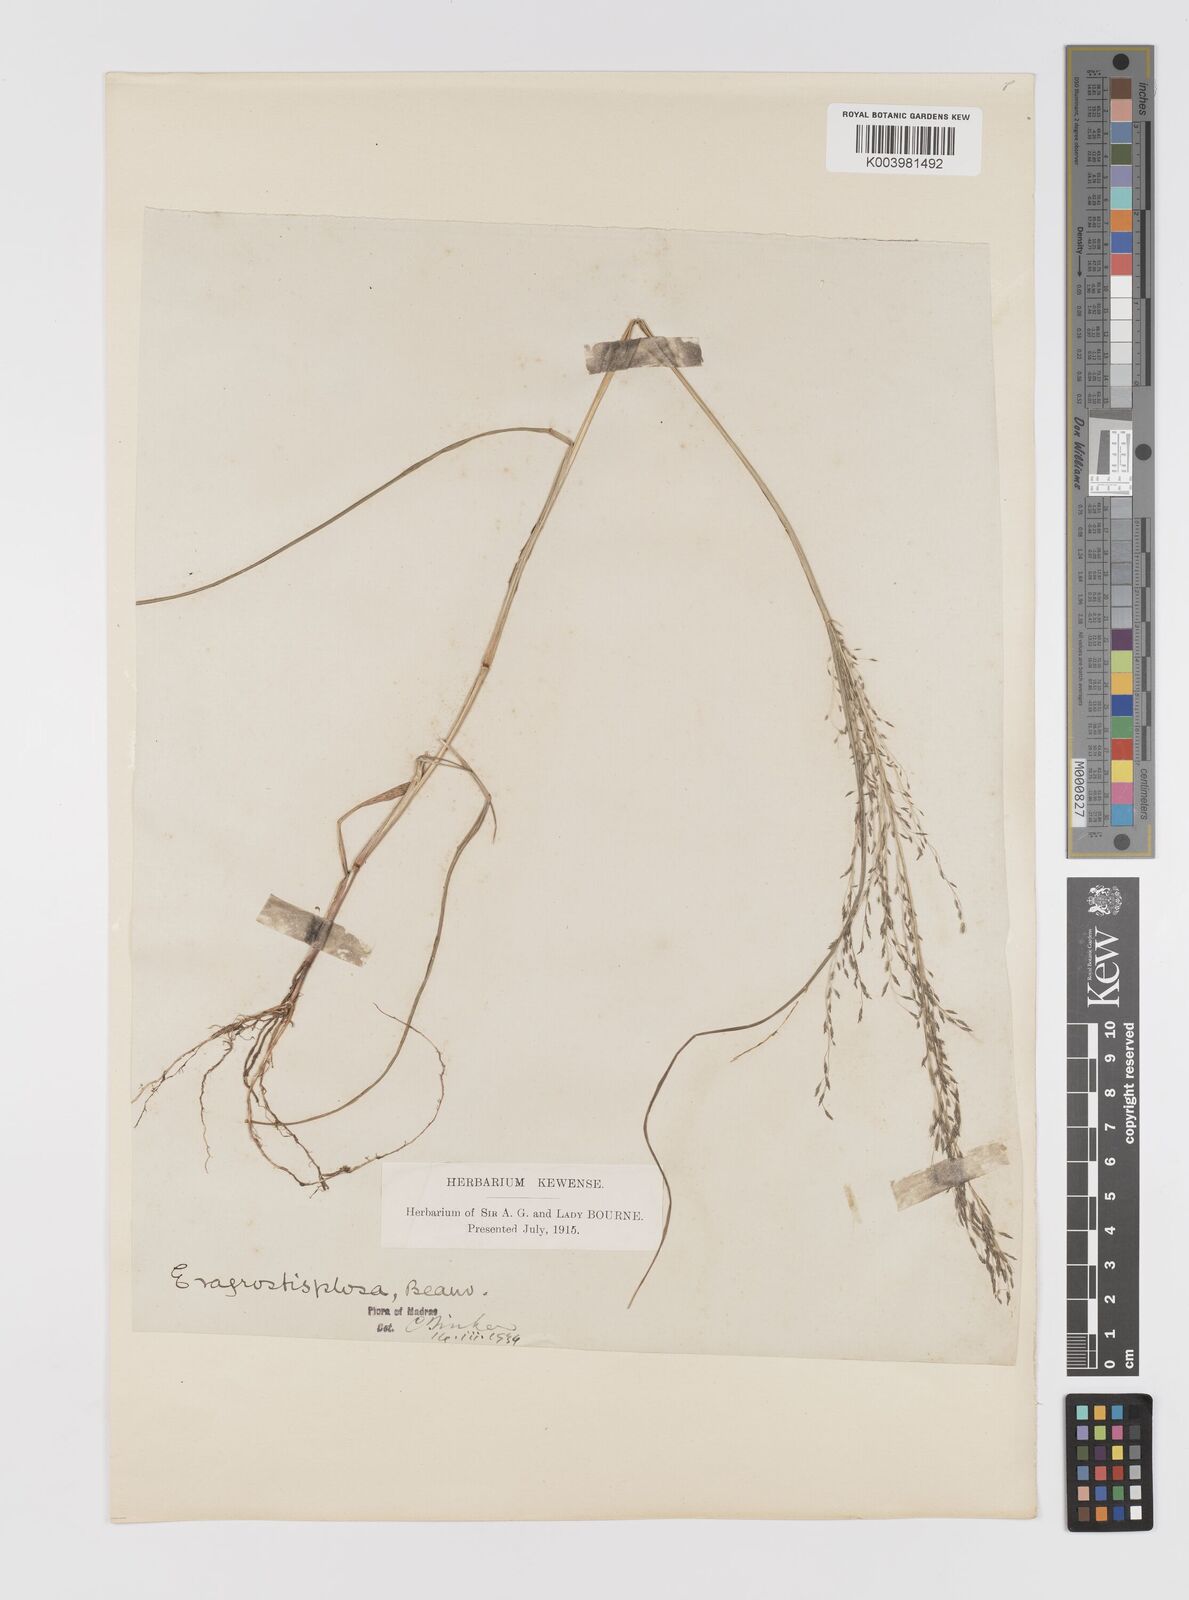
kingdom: Plantae
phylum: Tracheophyta
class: Liliopsida
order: Poales
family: Poaceae
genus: Eragrostis
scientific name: Eragrostis pilosa
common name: Indian lovegrass
